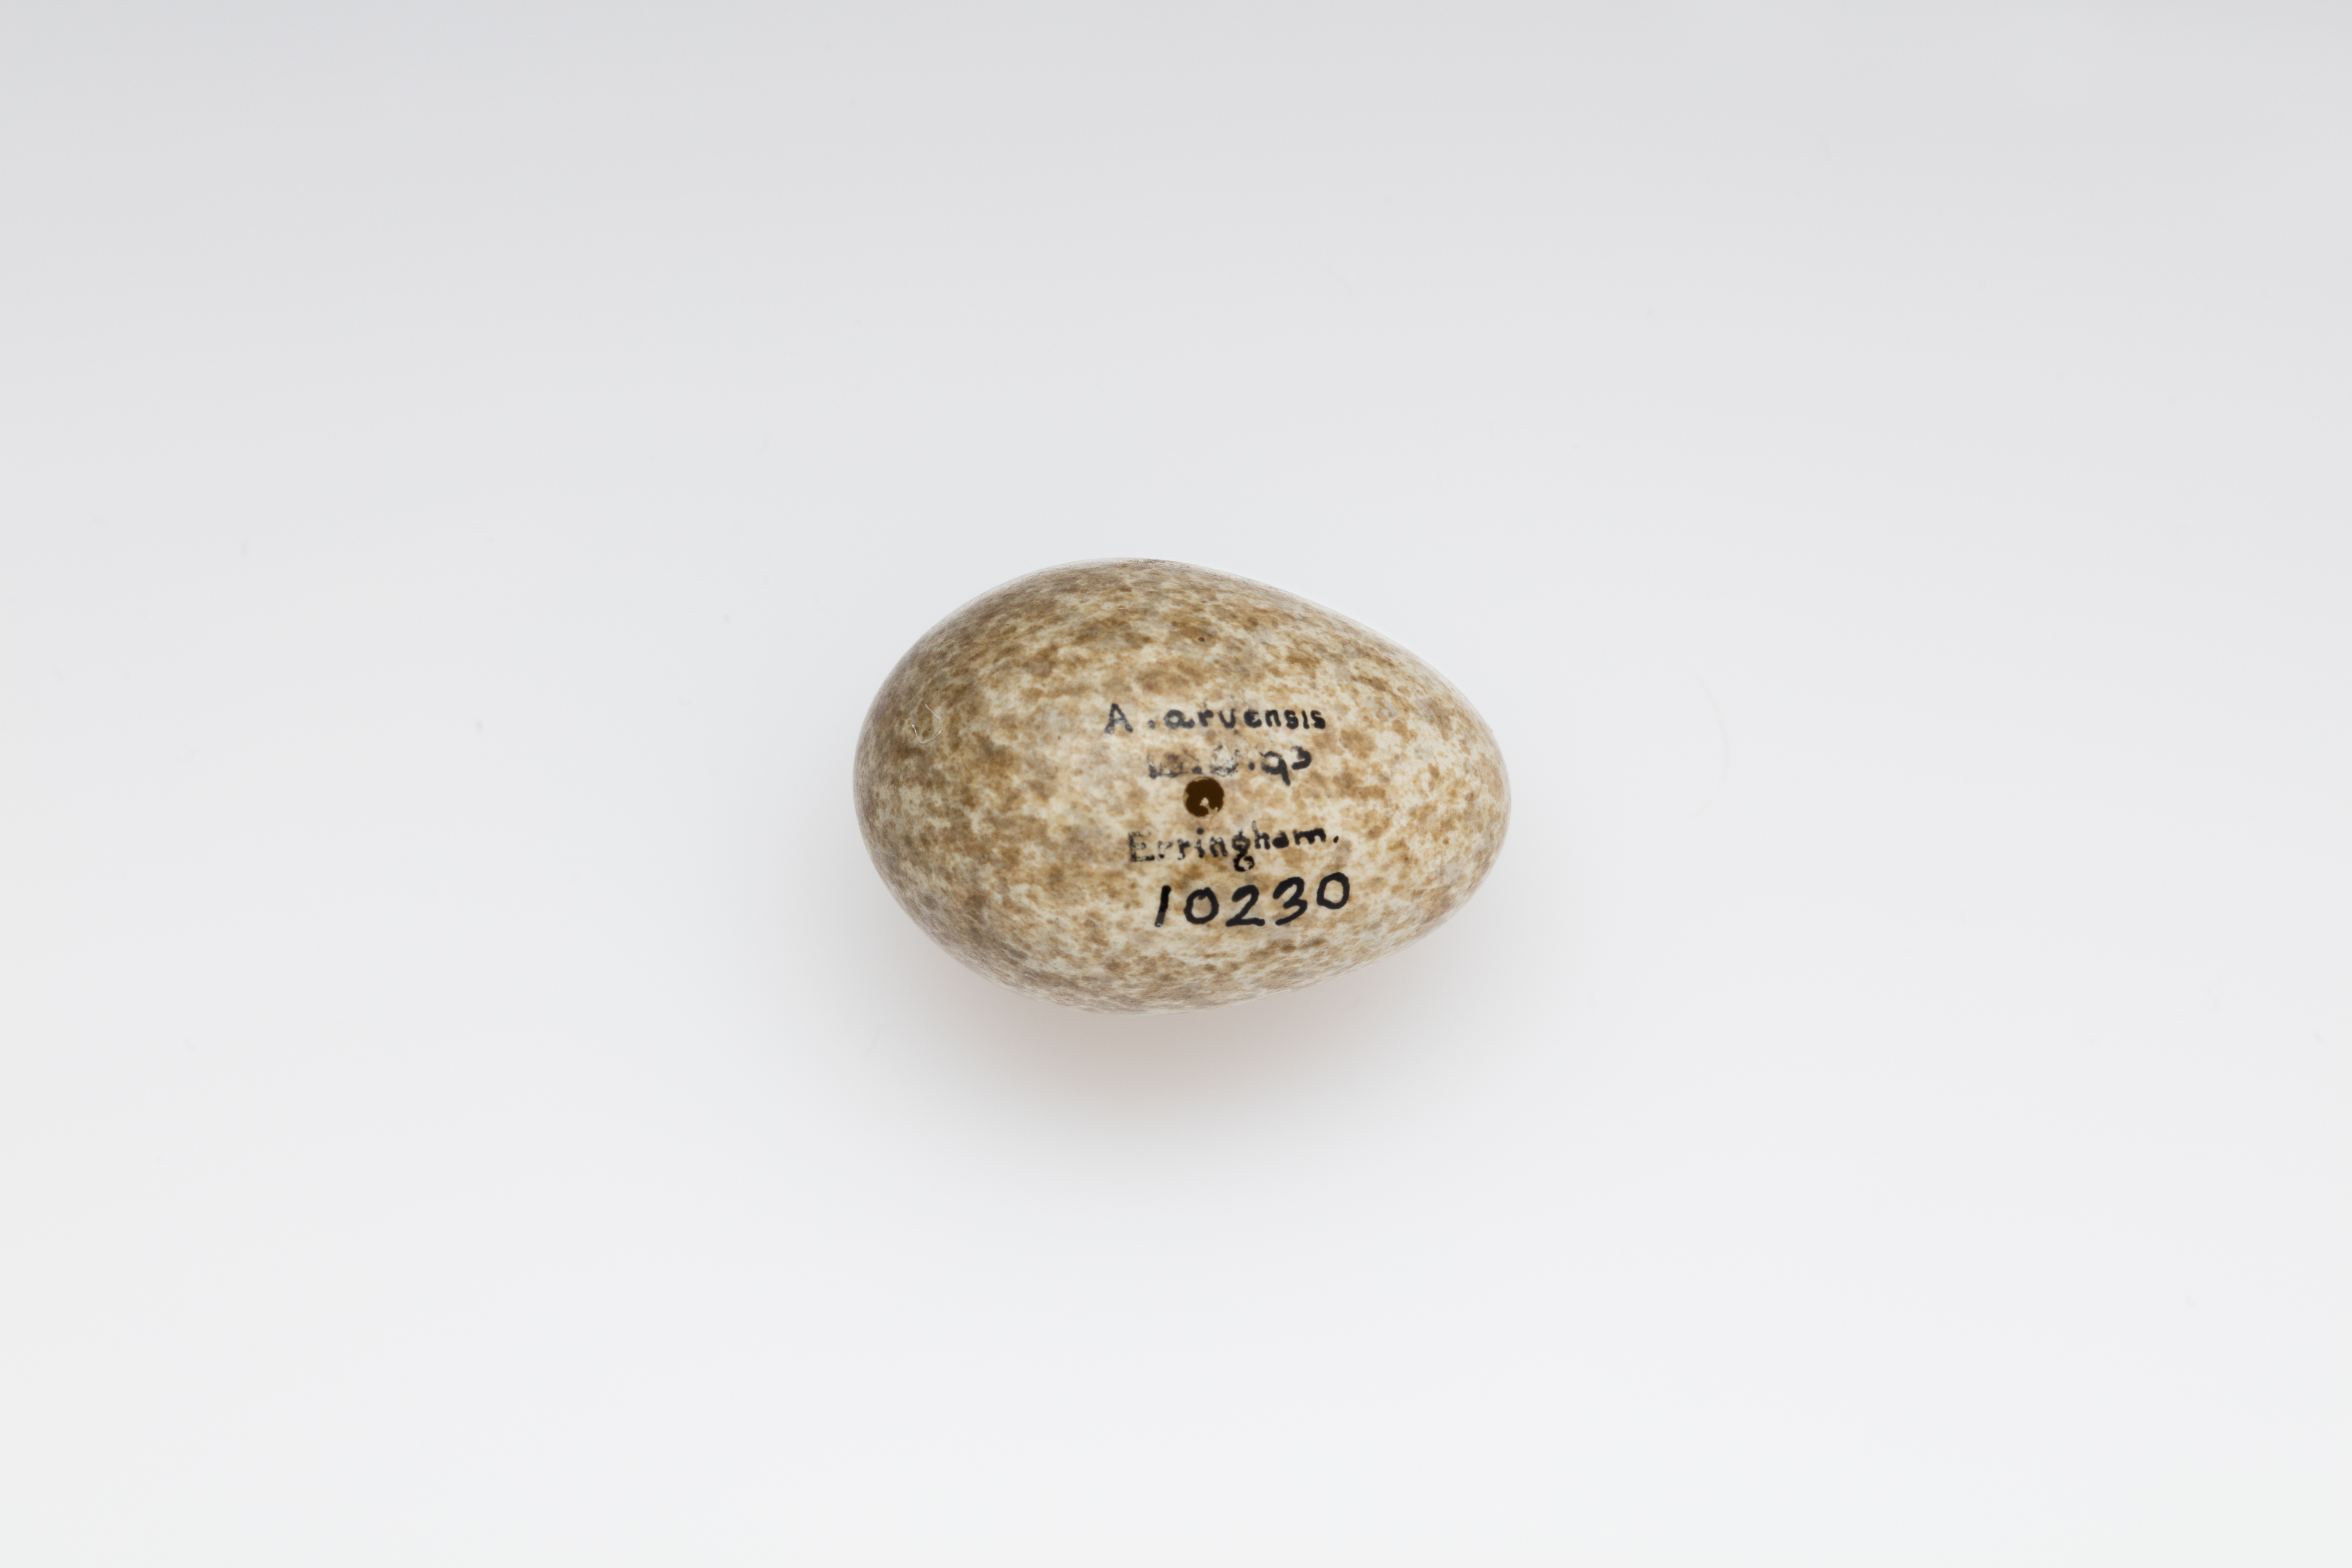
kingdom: Animalia
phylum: Chordata
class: Aves
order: Passeriformes
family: Alaudidae
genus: Alauda
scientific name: Alauda arvensis
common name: Eurasian skylark
